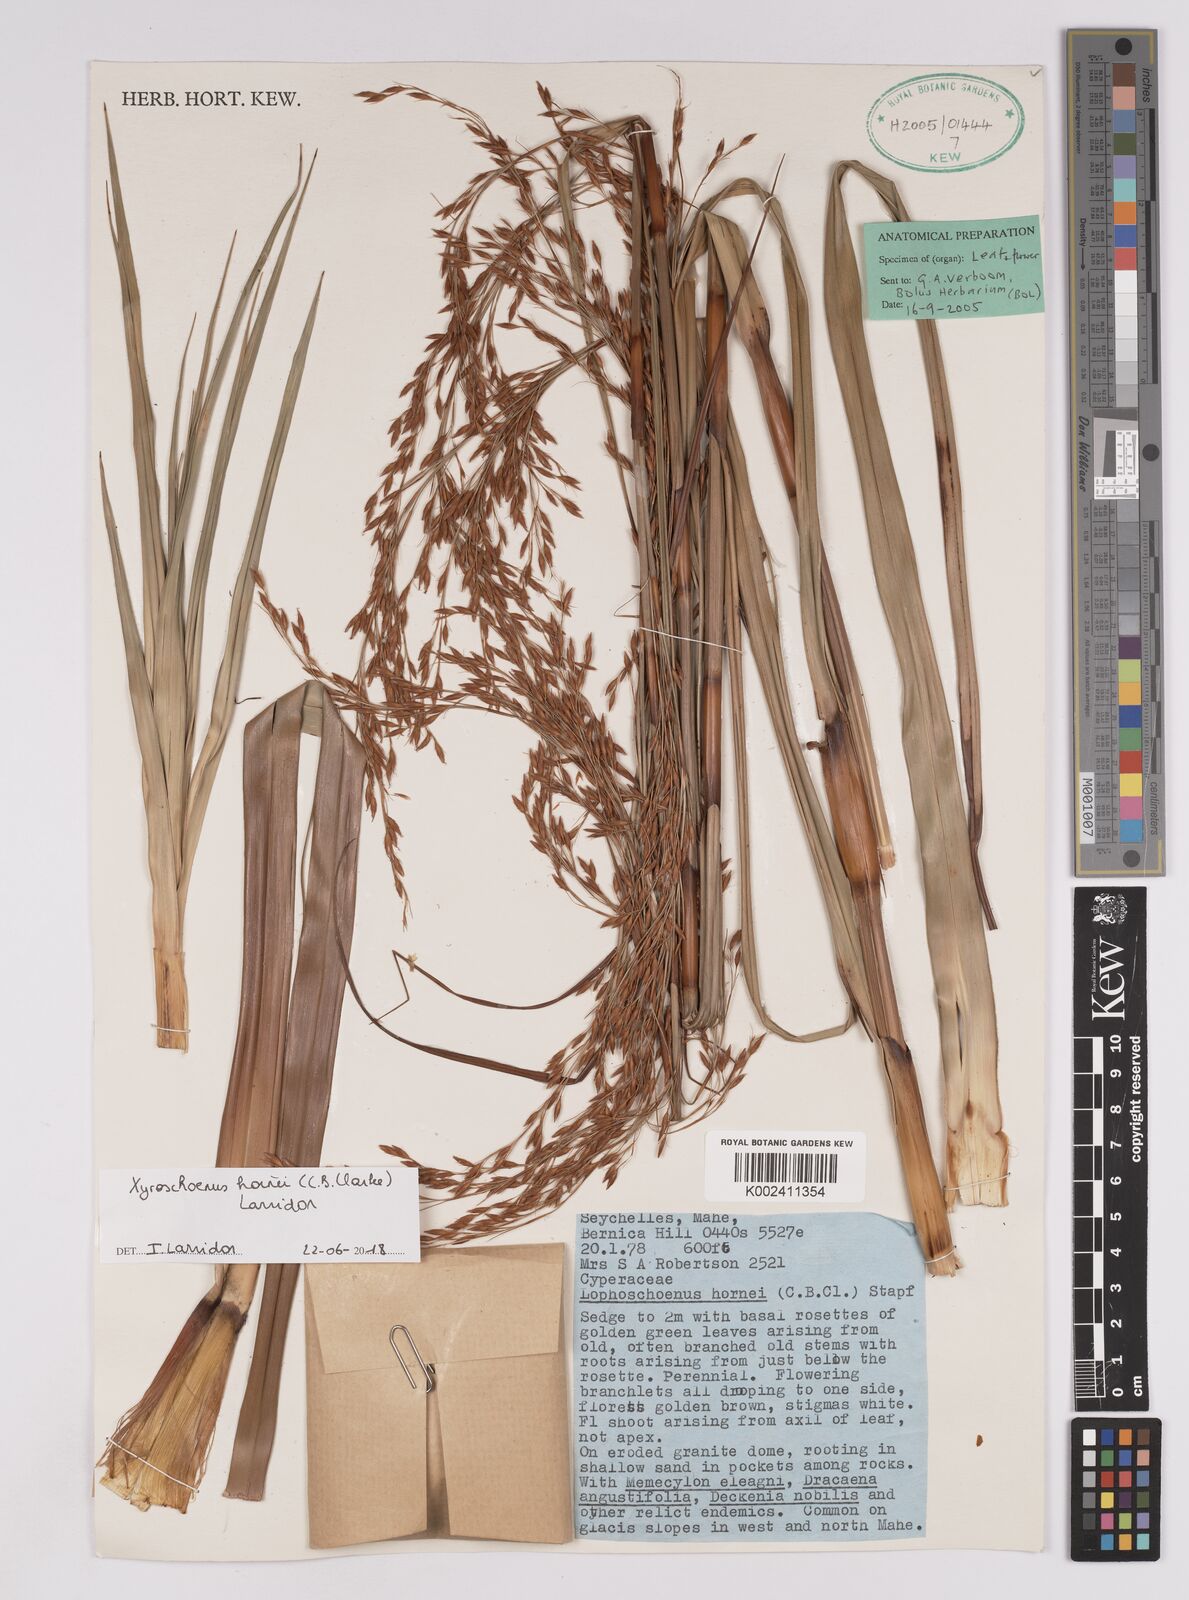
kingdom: Plantae
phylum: Tracheophyta
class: Liliopsida
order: Poales
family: Cyperaceae
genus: Xyroschoenus
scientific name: Xyroschoenus hornei
